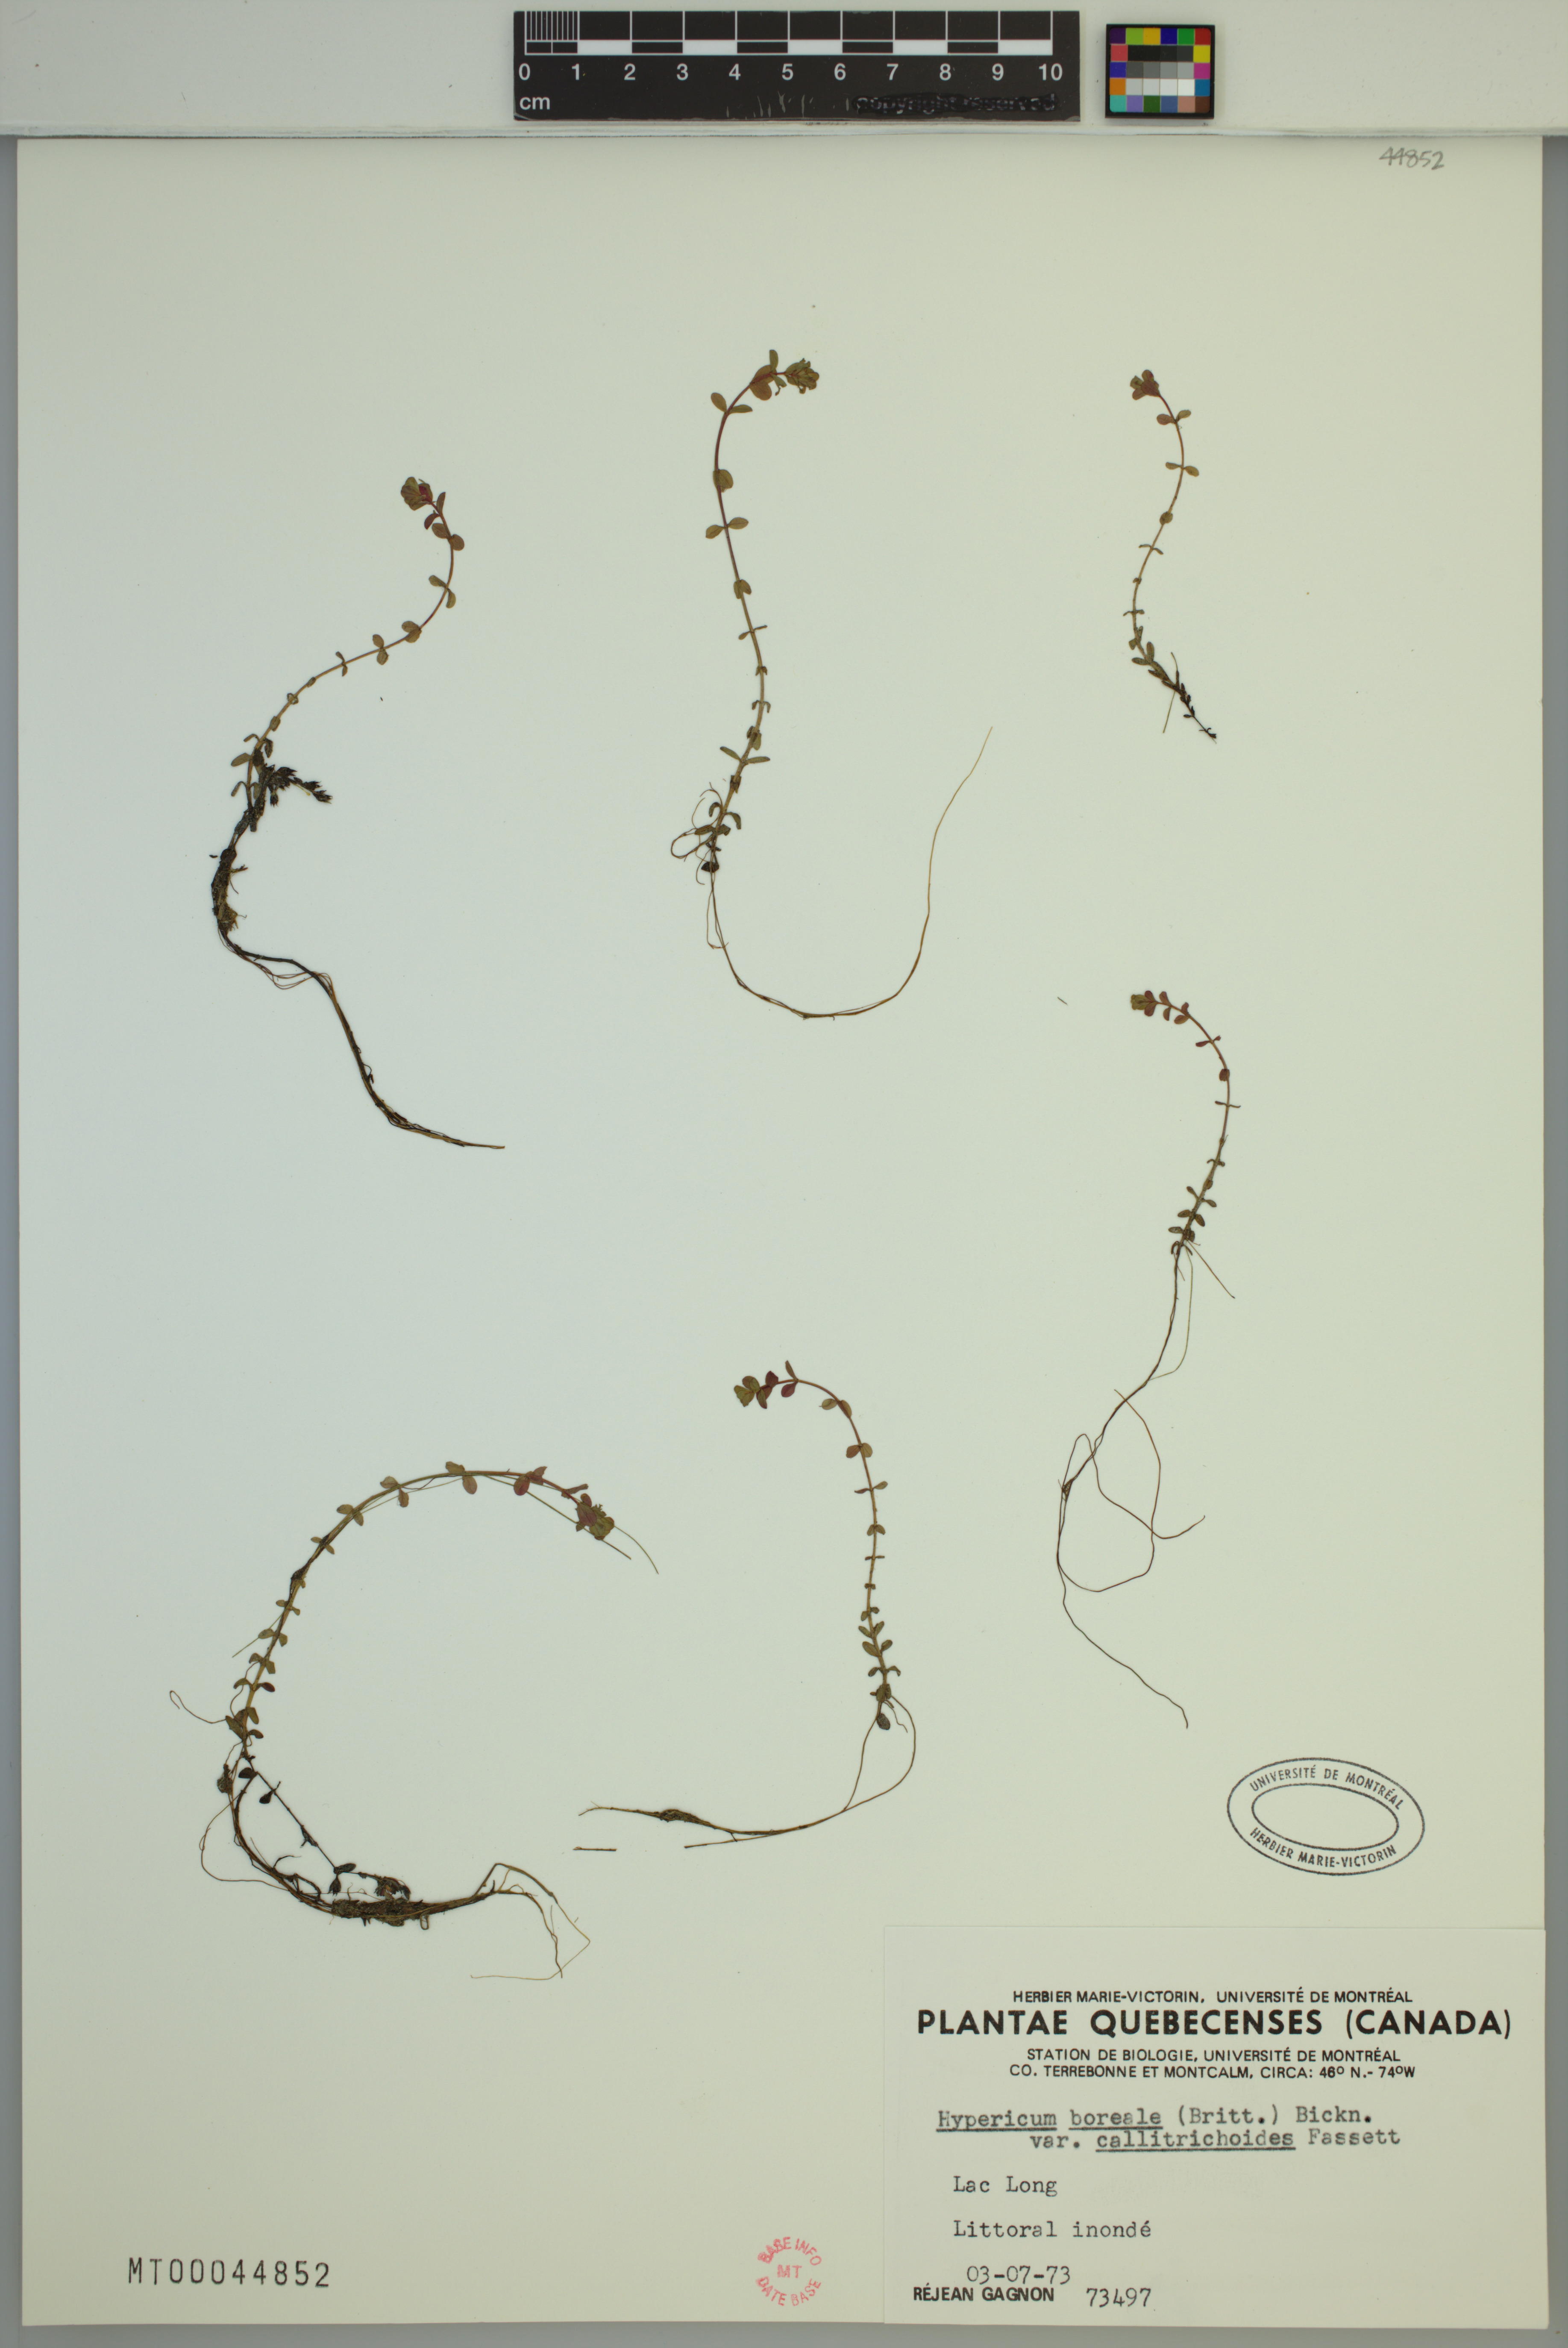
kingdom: Plantae
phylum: Tracheophyta
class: Magnoliopsida
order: Malpighiales
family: Hypericaceae
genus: Hypericum
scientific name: Hypericum boreale
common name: Northern bog st. john's-wort
